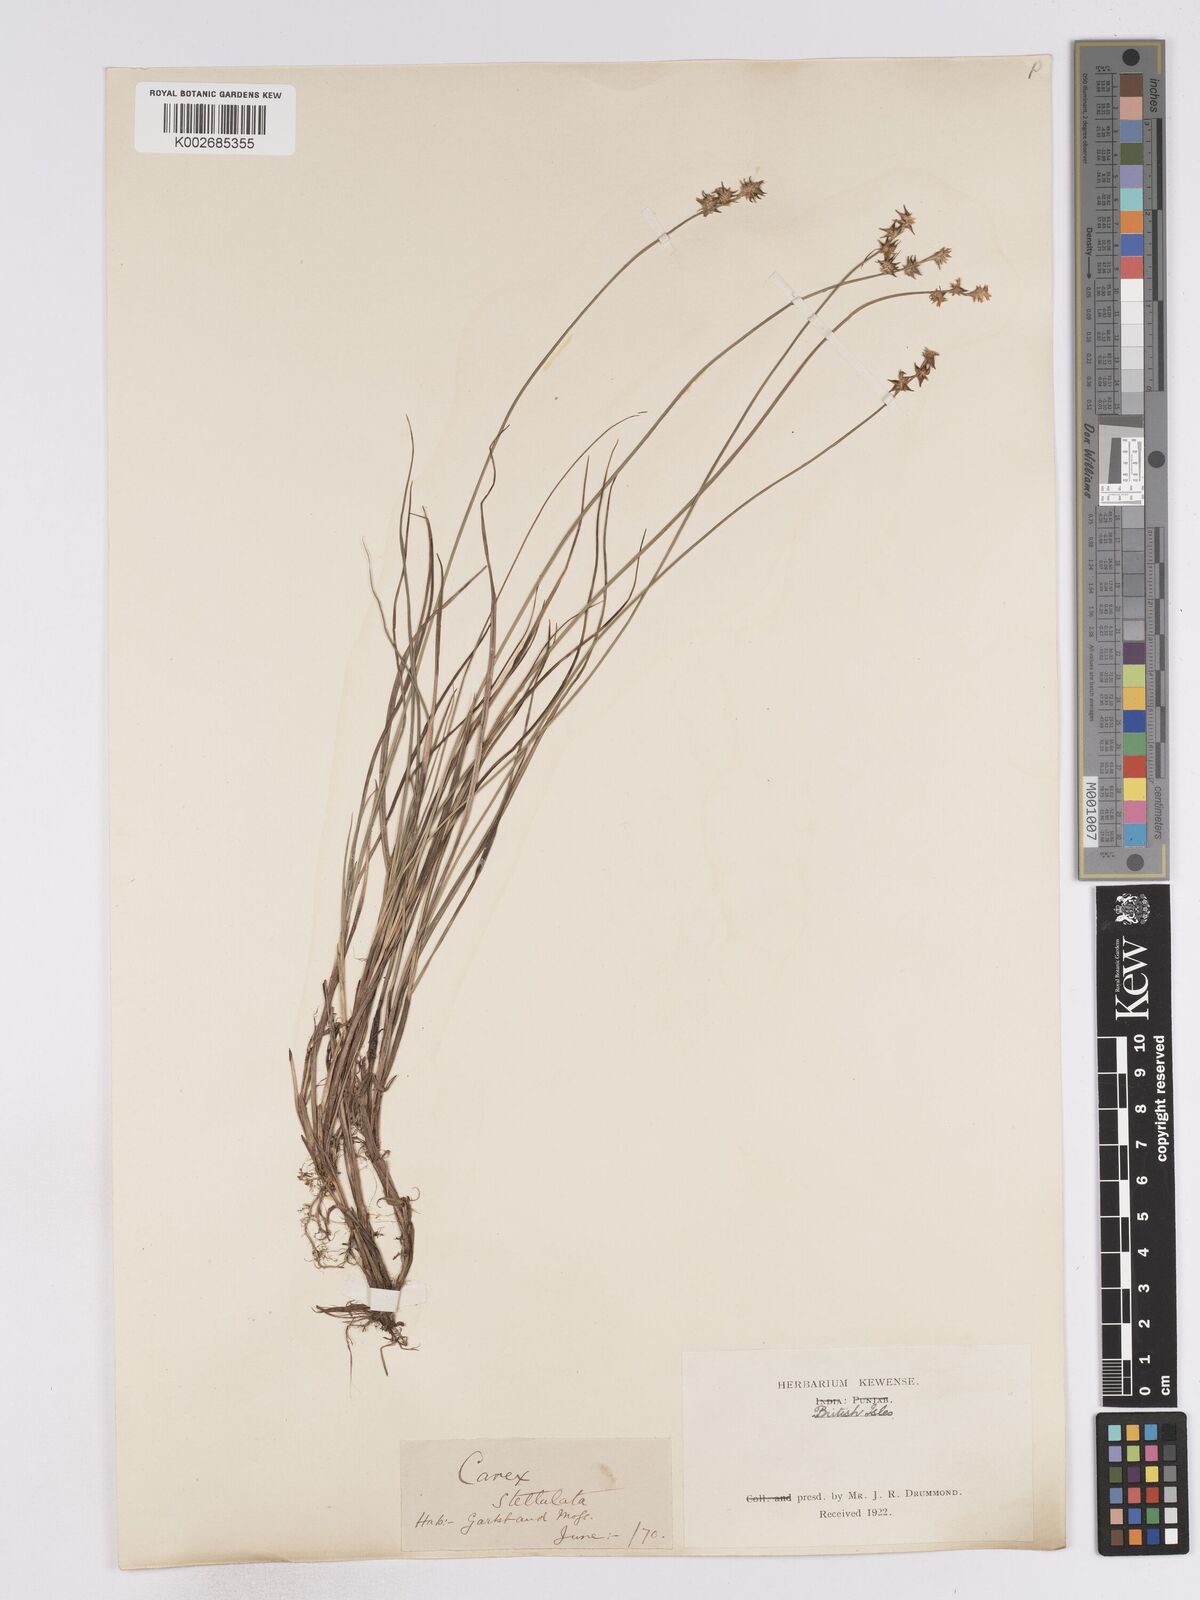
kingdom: Plantae
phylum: Tracheophyta
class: Liliopsida
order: Poales
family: Cyperaceae
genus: Carex
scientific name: Carex echinata
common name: Star sedge
